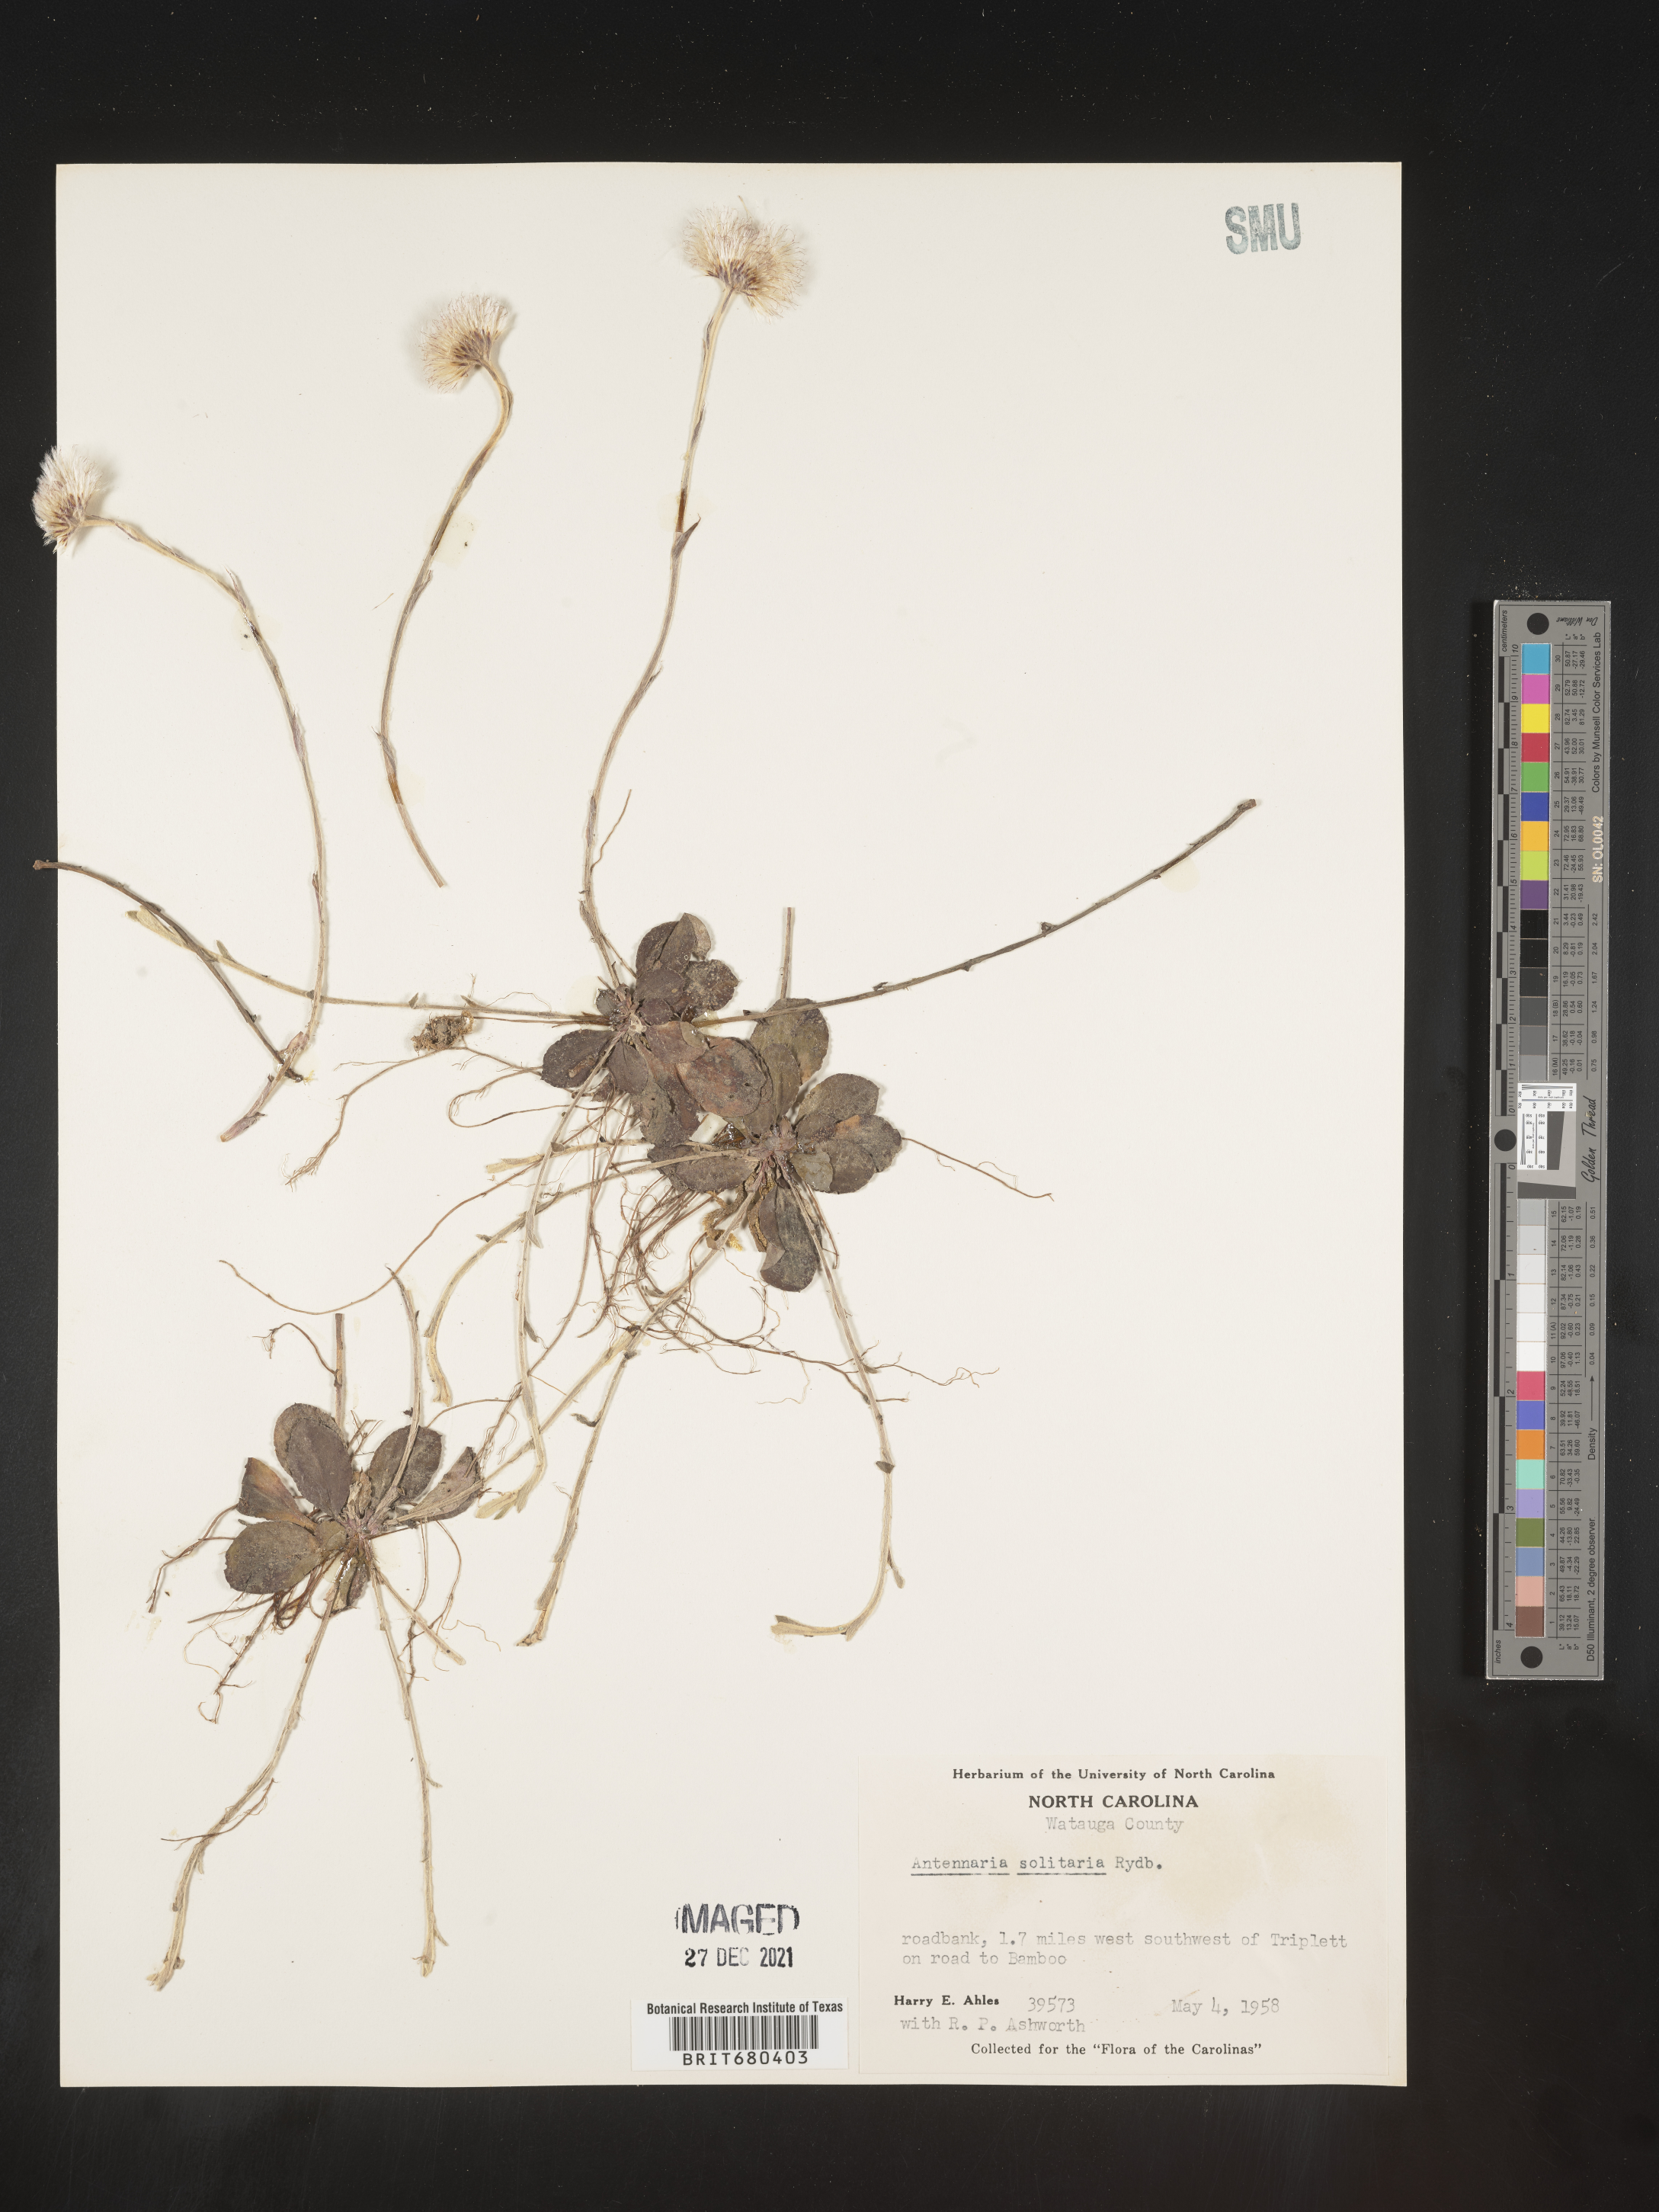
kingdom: Plantae
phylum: Tracheophyta
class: Magnoliopsida
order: Asterales
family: Asteraceae
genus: Antennaria
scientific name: Antennaria solitaria
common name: Single-head pussytoes
